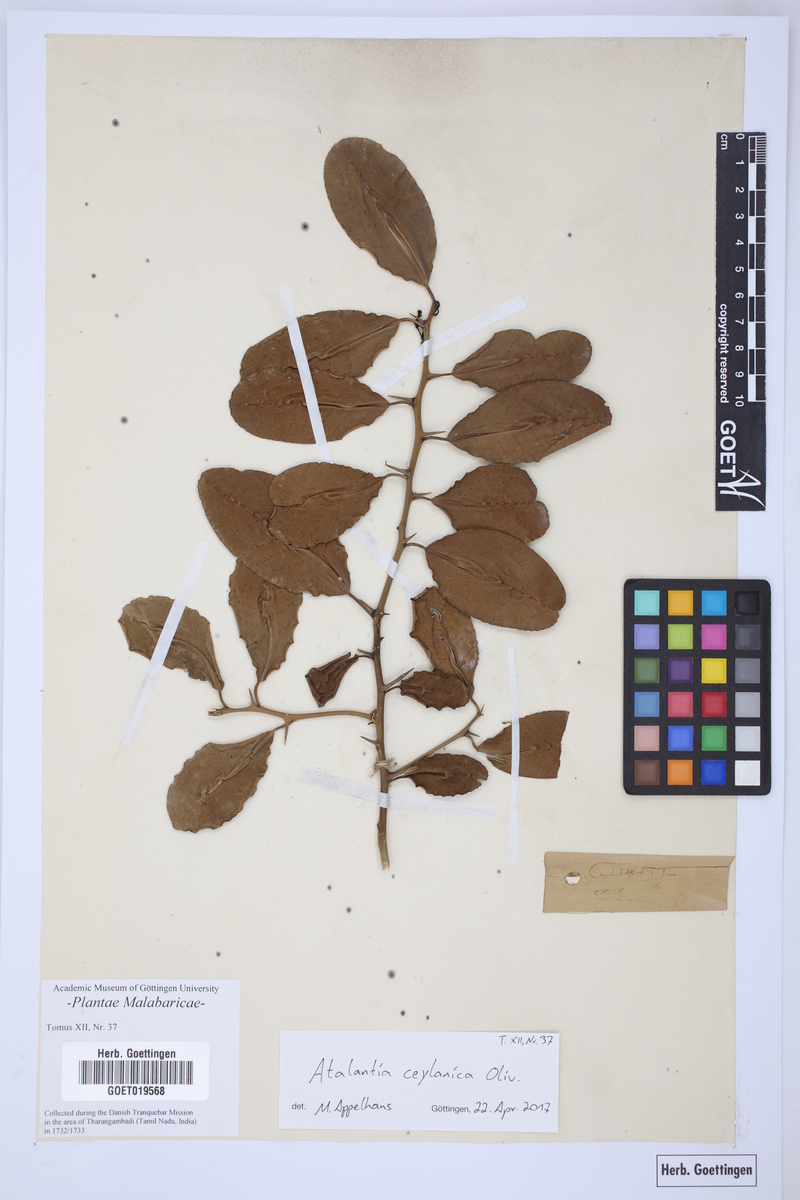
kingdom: Plantae
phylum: Tracheophyta
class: Magnoliopsida
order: Sapindales
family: Rutaceae
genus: Atalantia
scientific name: Atalantia ceylanica
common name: Ceylon-atalantia
